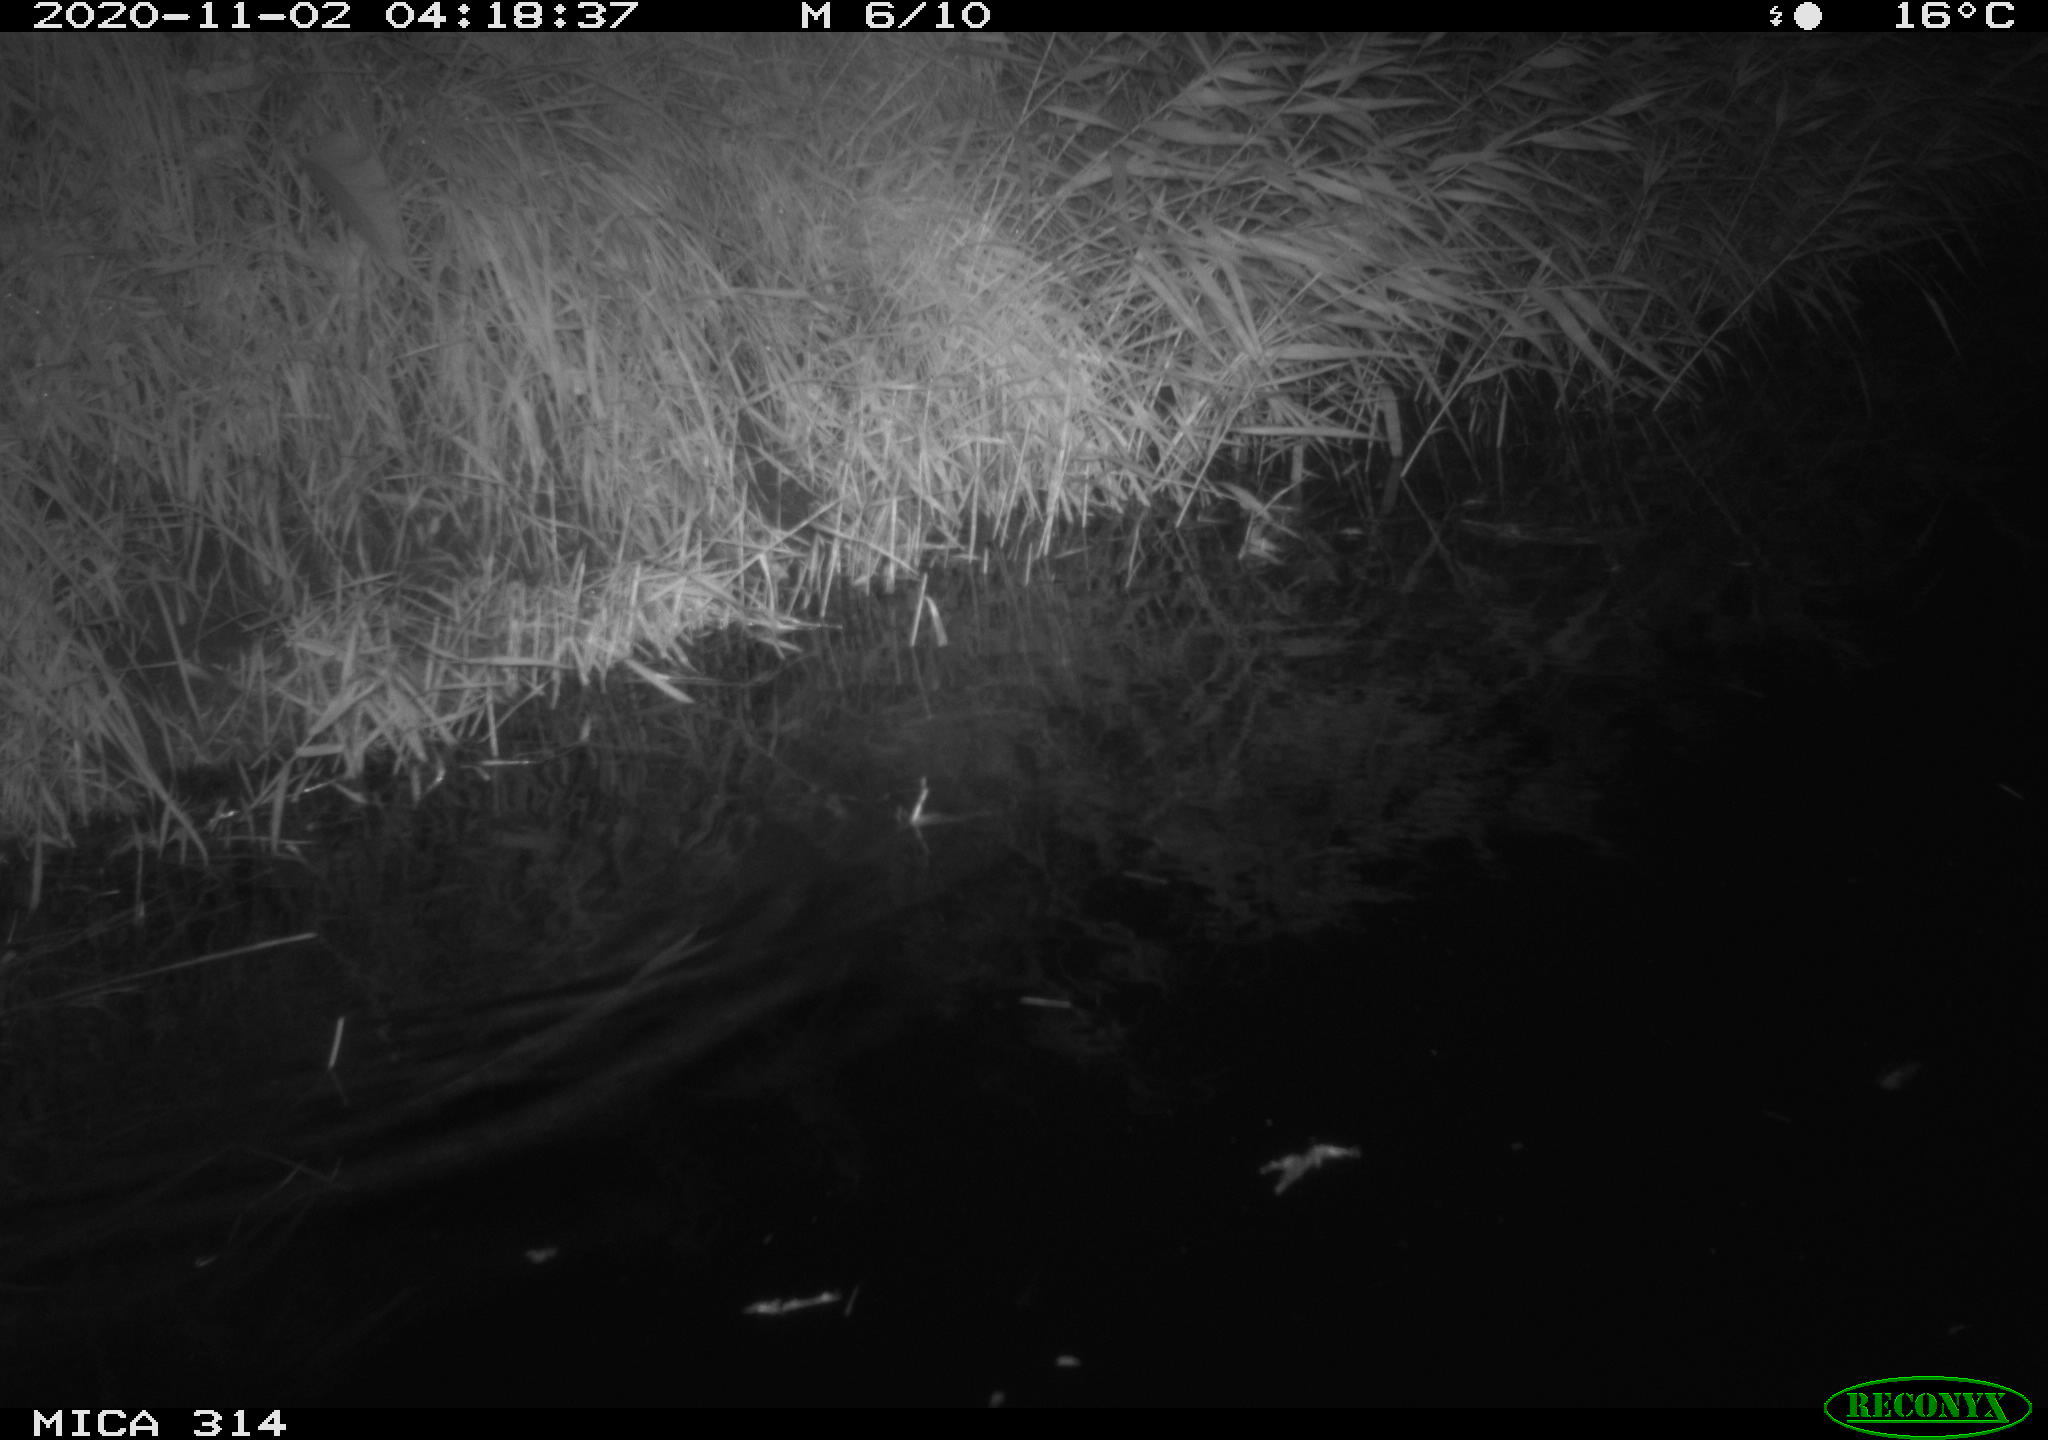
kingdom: Animalia
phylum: Chordata
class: Mammalia
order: Rodentia
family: Muridae
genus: Rattus
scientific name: Rattus norvegicus
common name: Brown rat
